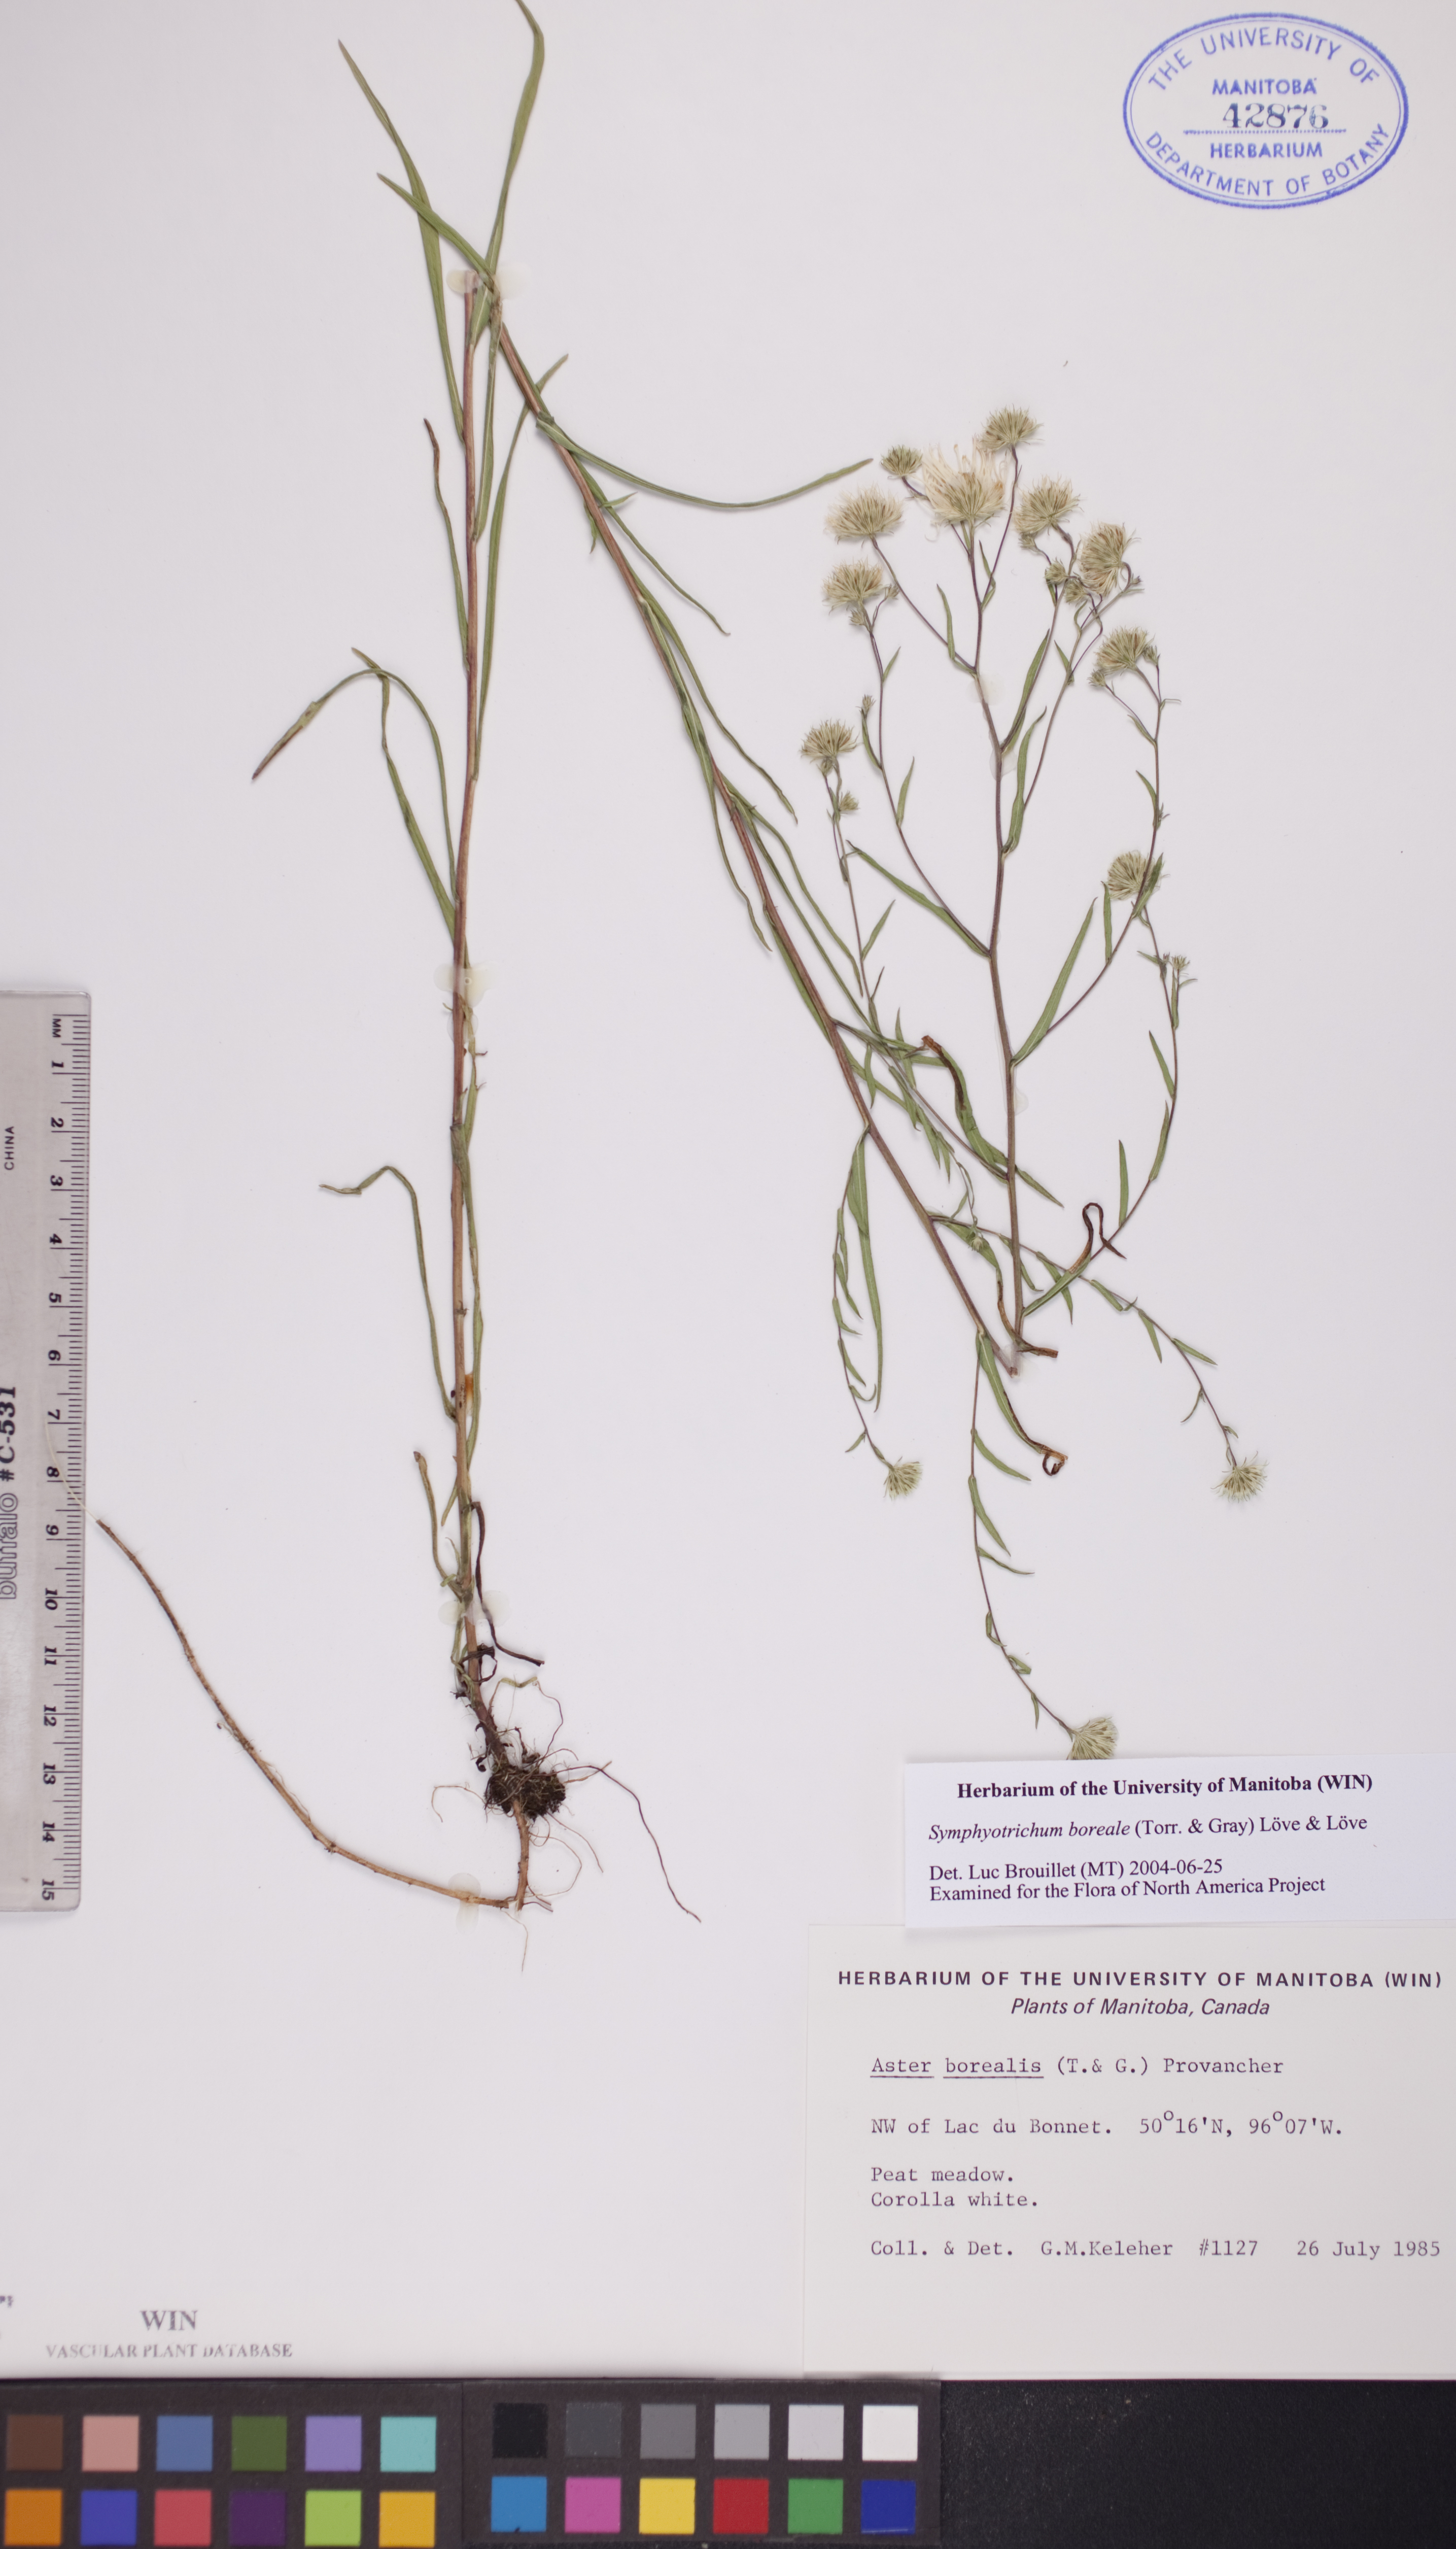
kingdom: Plantae
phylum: Tracheophyta
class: Magnoliopsida
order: Asterales
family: Asteraceae
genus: Symphyotrichum
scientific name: Symphyotrichum boreale
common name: Northern bog aster
